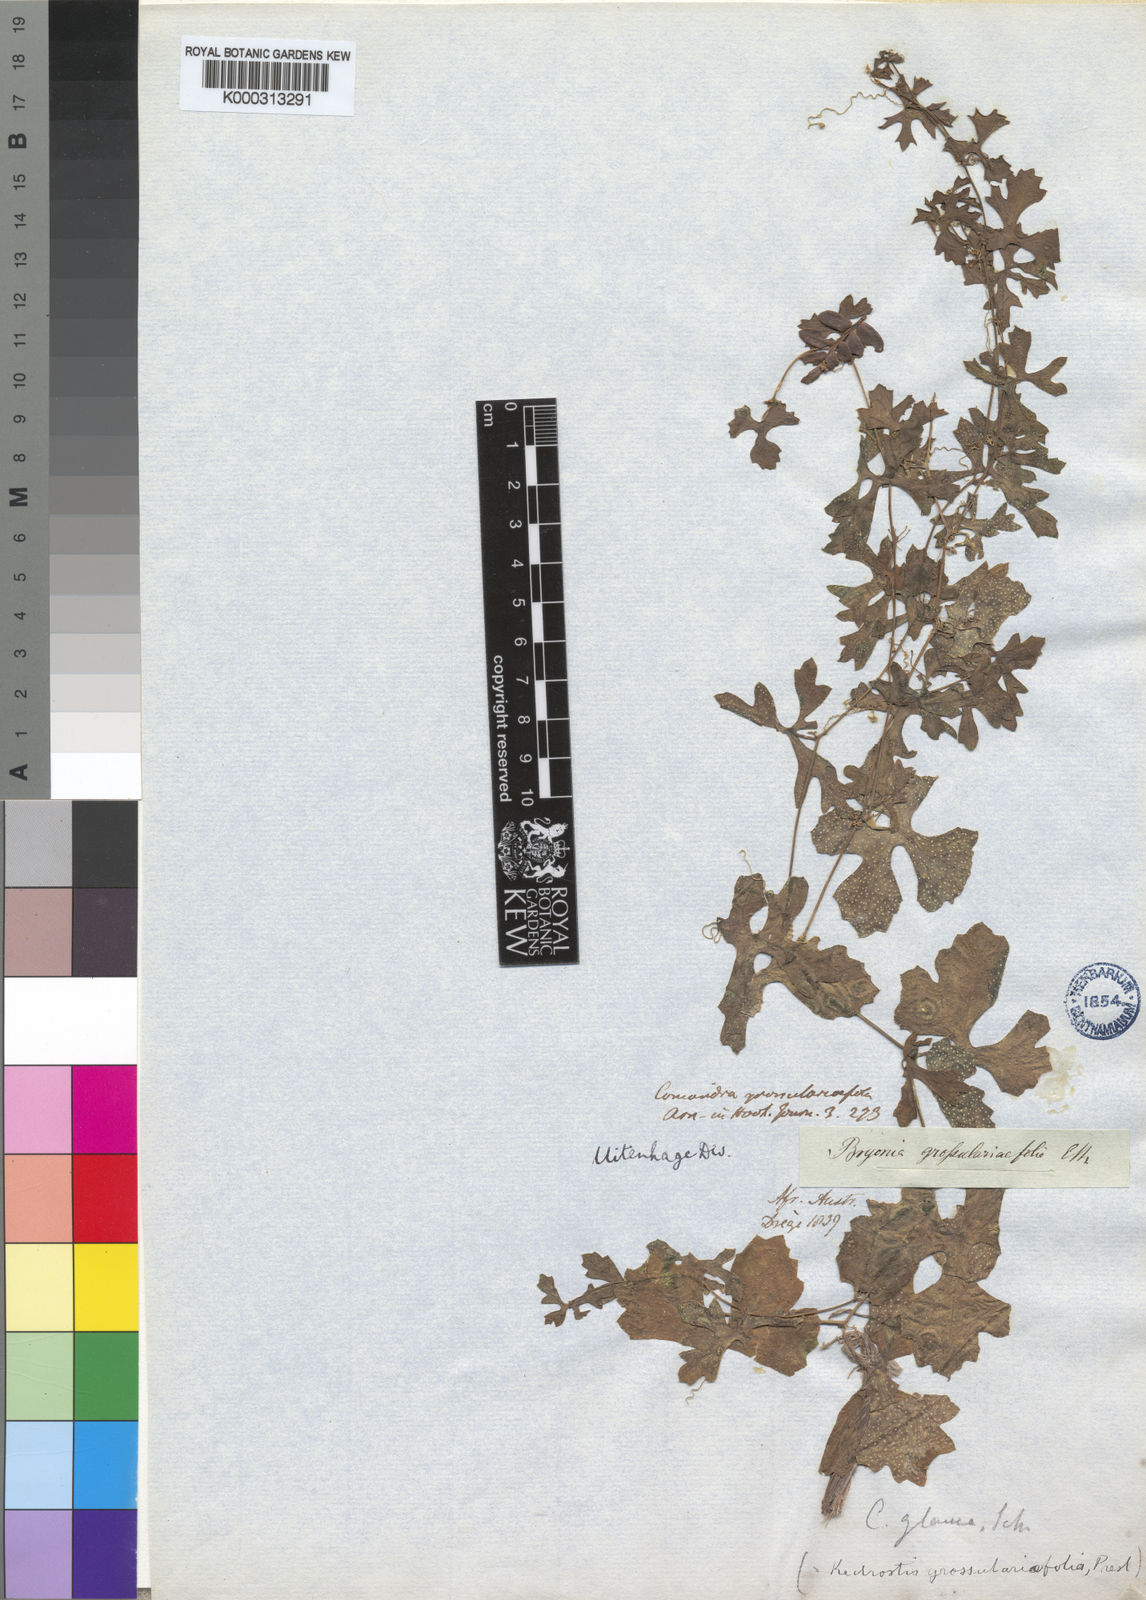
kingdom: Plantae
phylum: Tracheophyta
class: Magnoliopsida
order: Cucurbitales
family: Cucurbitaceae
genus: Kedrostis
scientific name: Kedrostis africana
